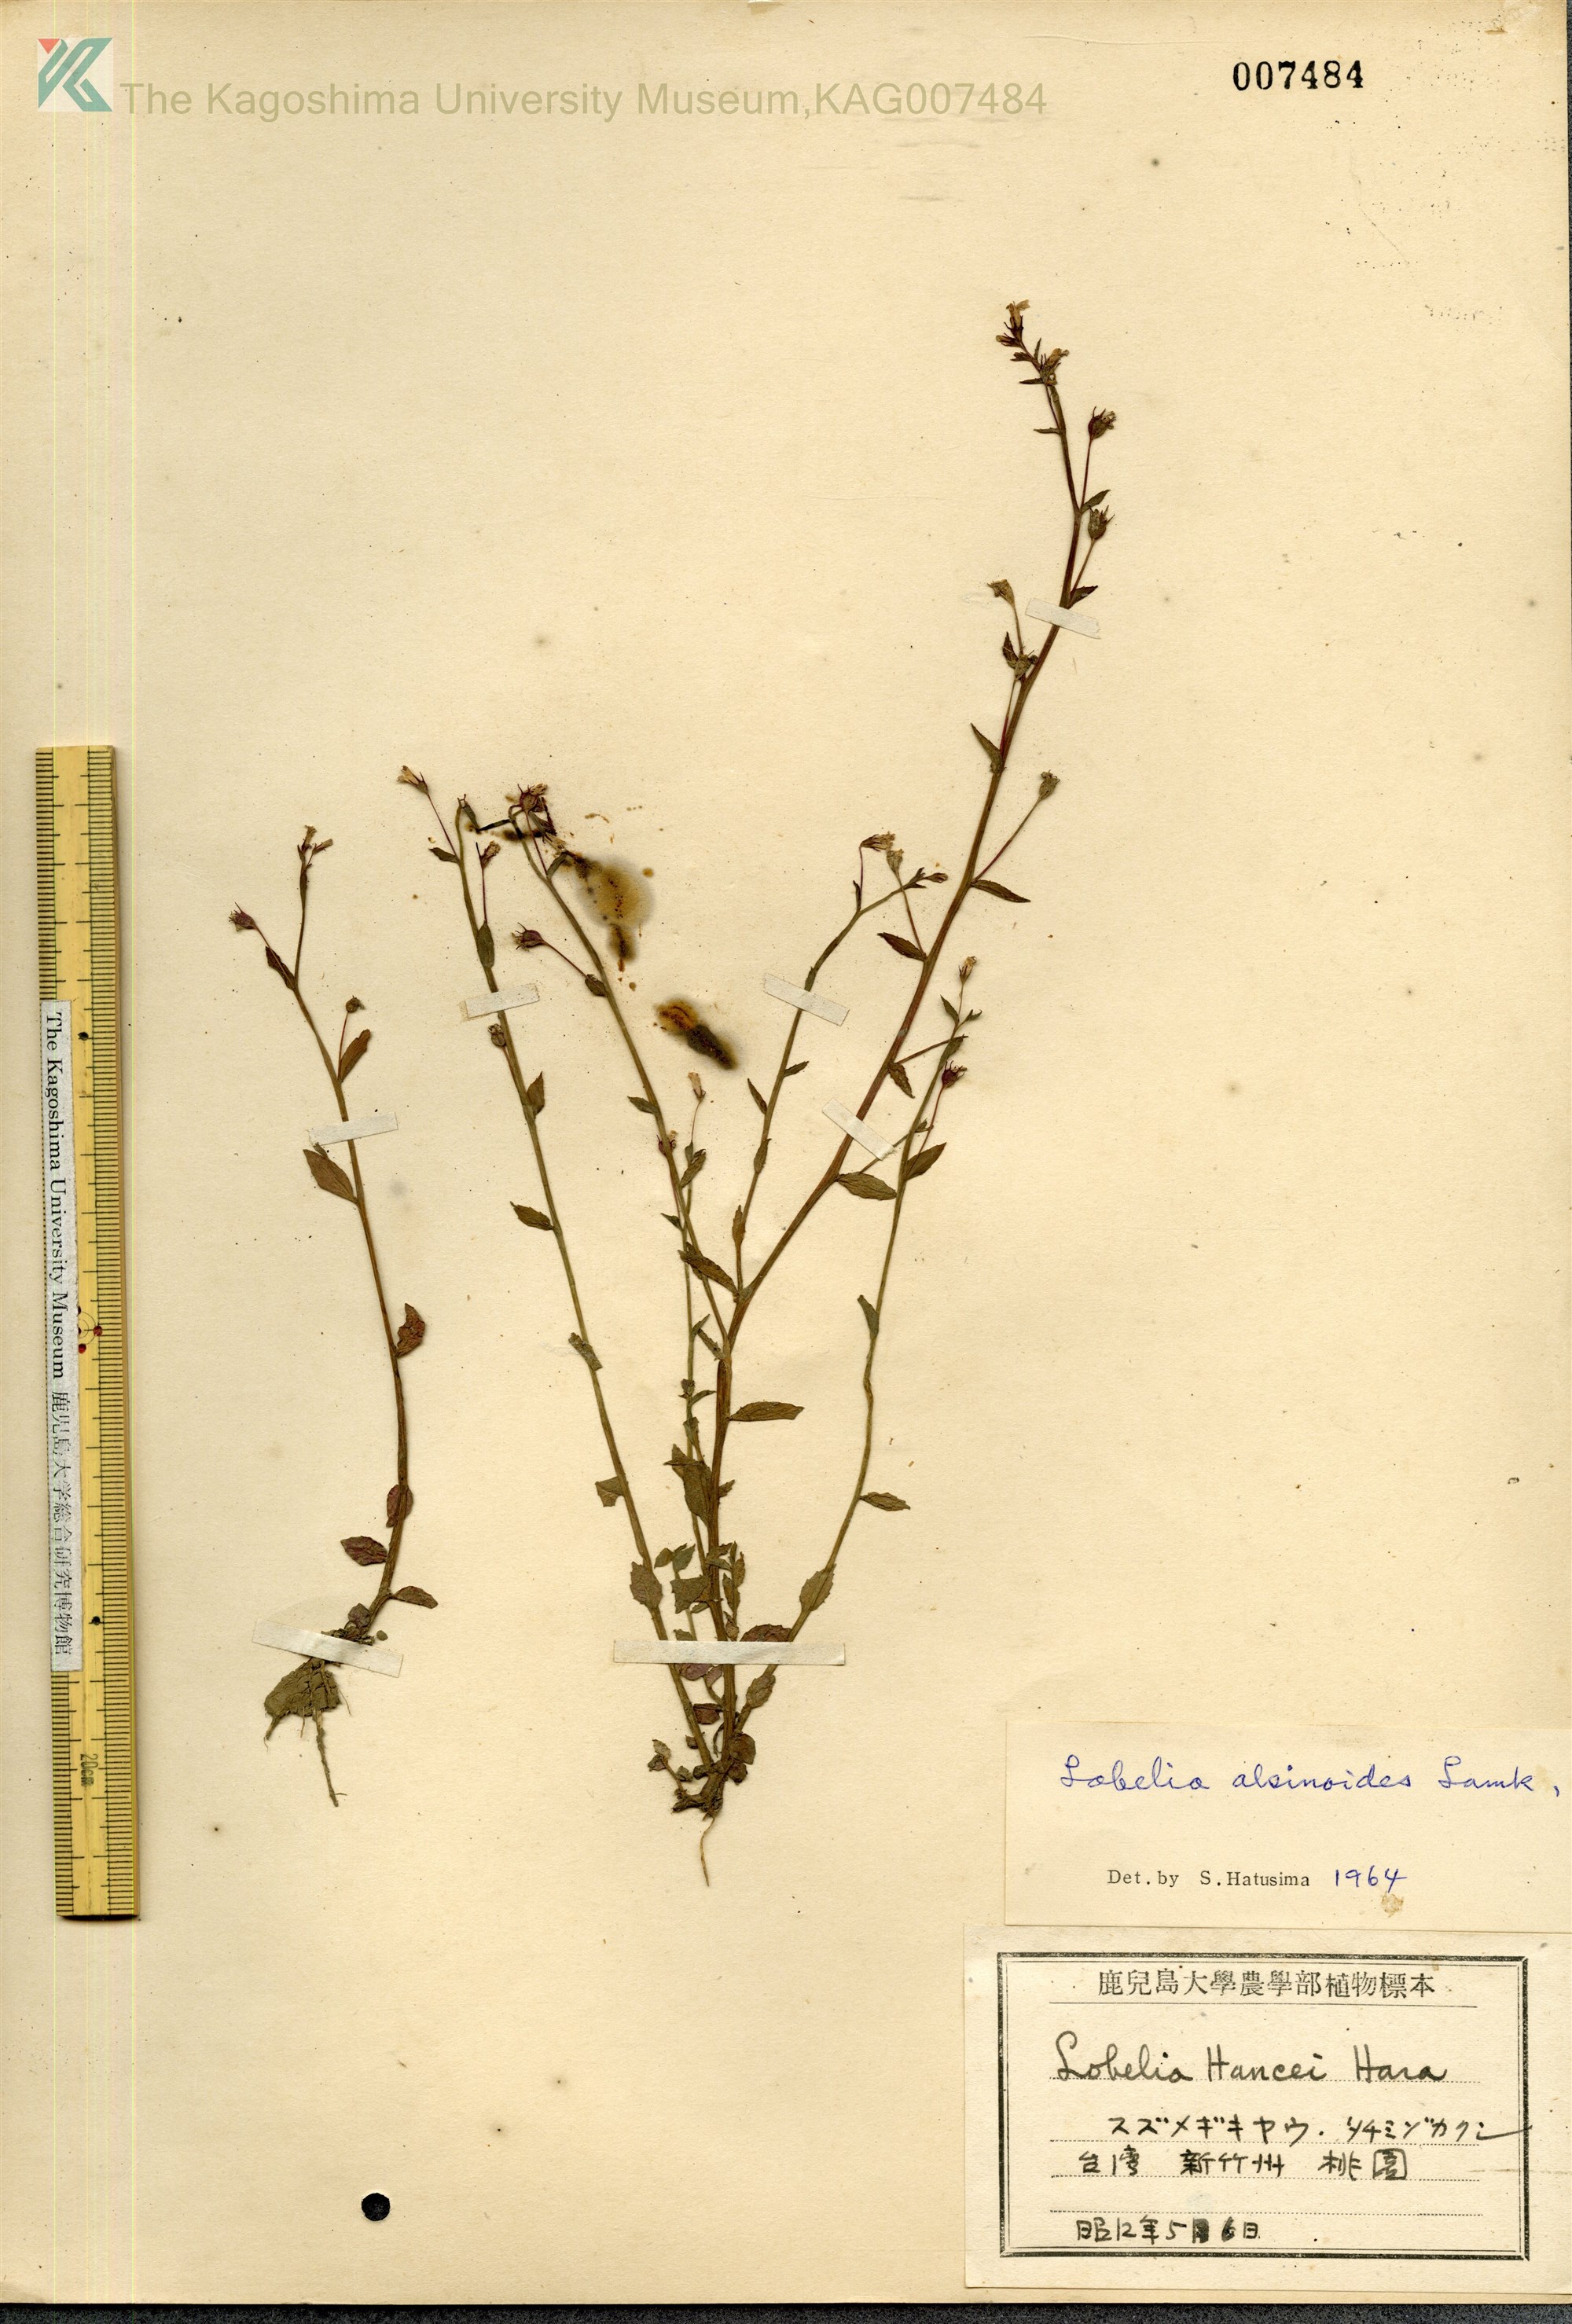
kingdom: Plantae
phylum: Tracheophyta
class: Magnoliopsida
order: Asterales
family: Campanulaceae
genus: Lobelia
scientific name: Lobelia alsinoides
